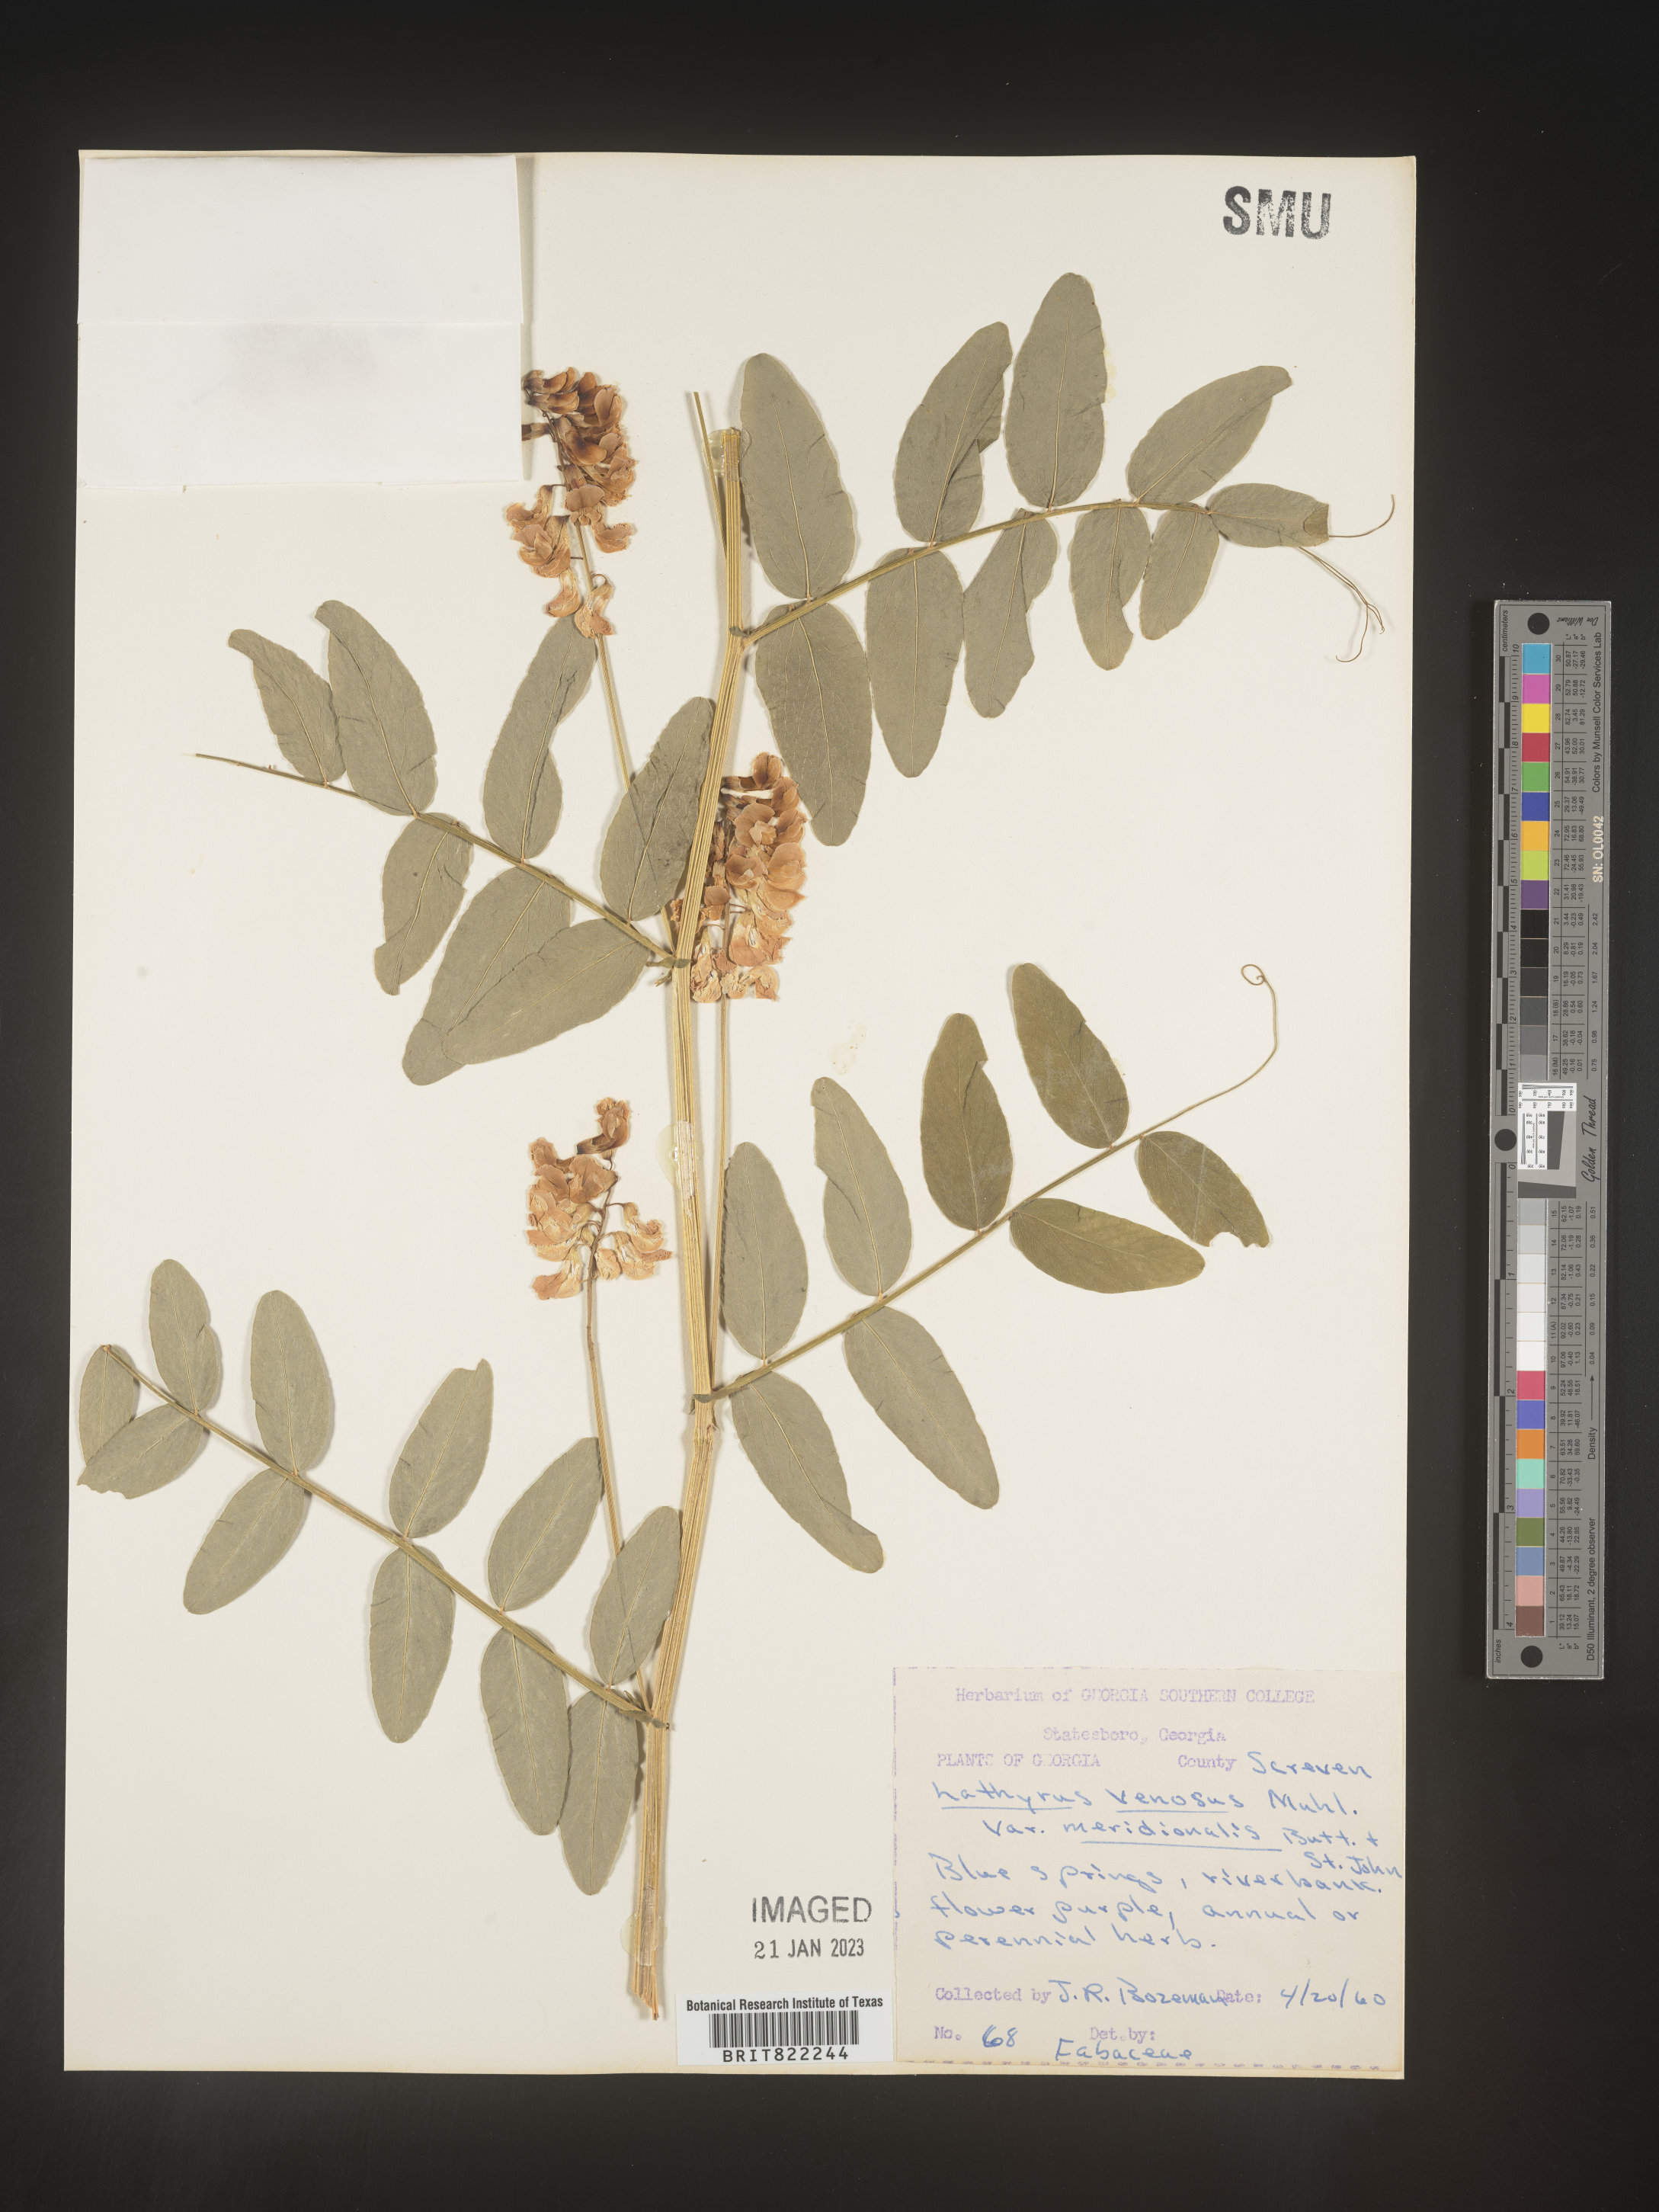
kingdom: Plantae
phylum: Tracheophyta
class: Magnoliopsida
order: Fabales
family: Fabaceae
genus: Lathyrus
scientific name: Lathyrus venosus
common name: Forest-pea
